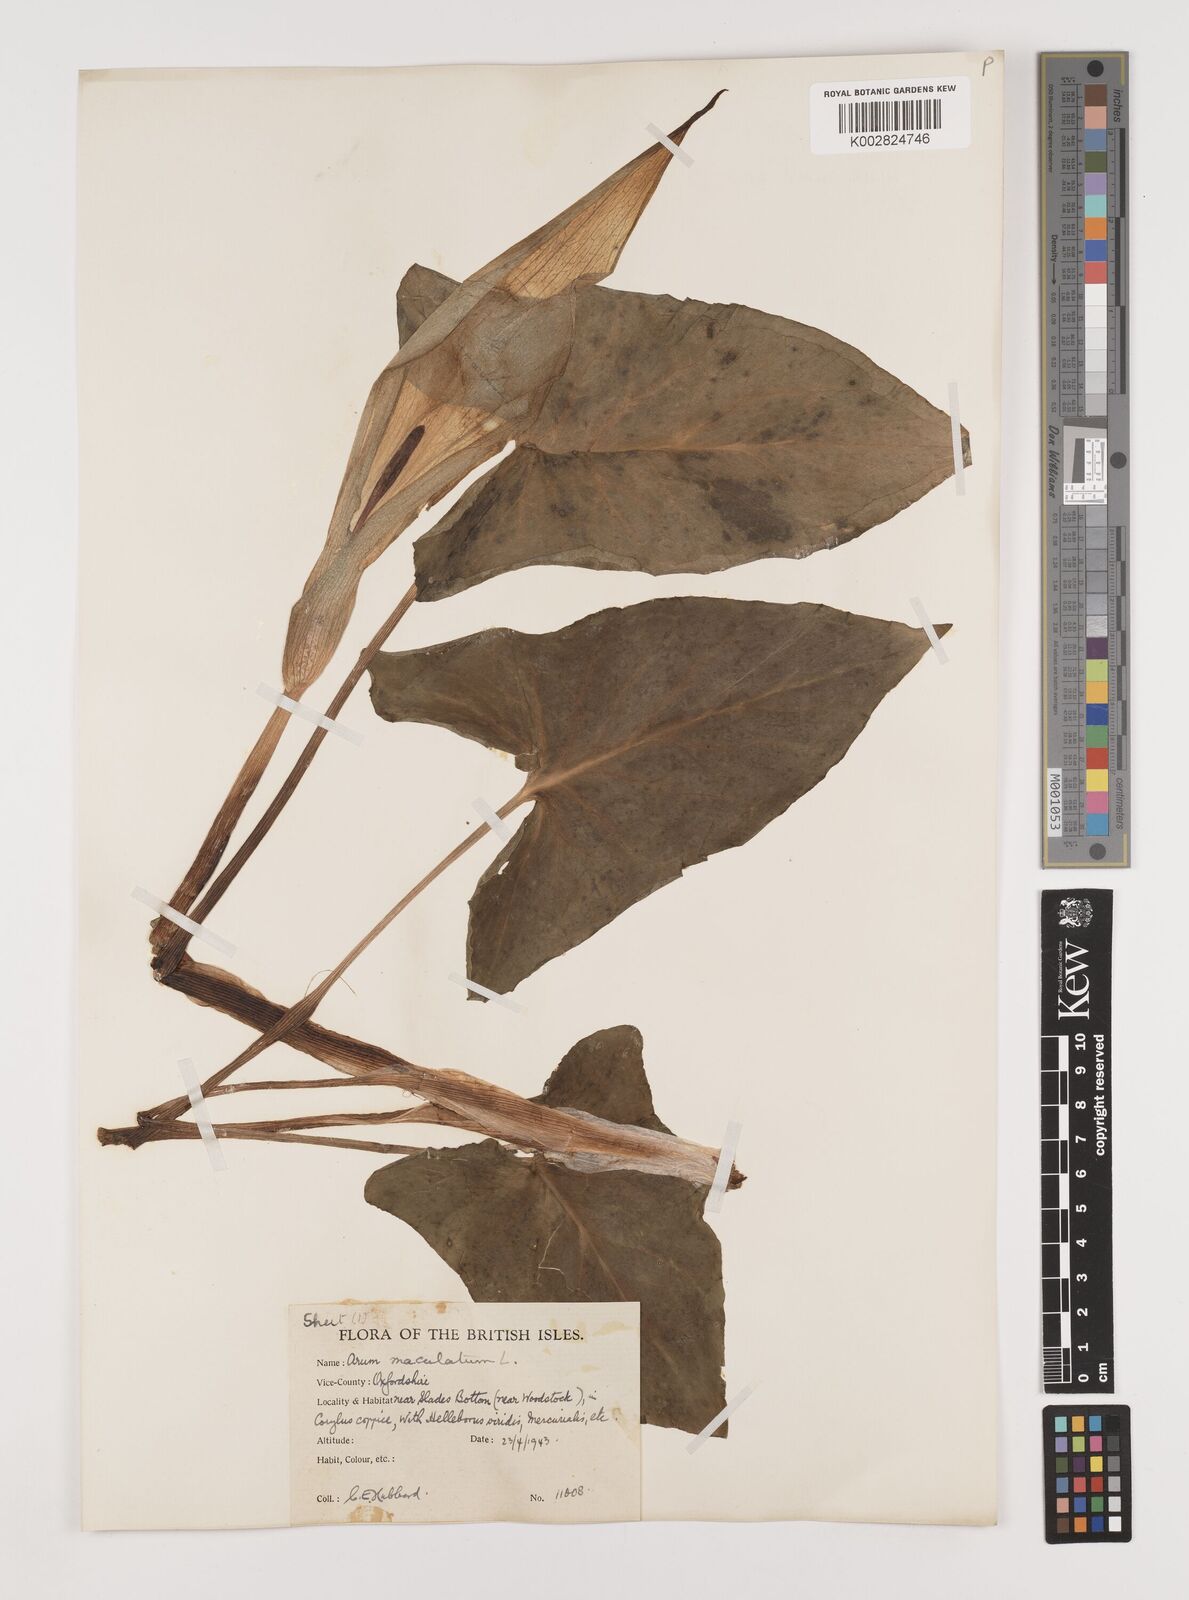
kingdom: Plantae
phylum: Tracheophyta
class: Liliopsida
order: Alismatales
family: Araceae
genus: Arum
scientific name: Arum maculatum
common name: Lords-and-ladies
